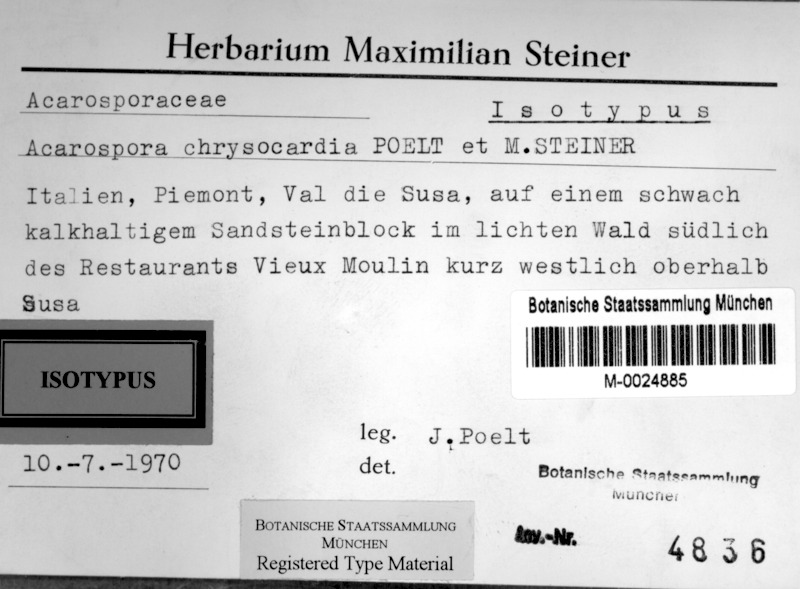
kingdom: Fungi
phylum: Ascomycota
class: Lecanoromycetes
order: Acarosporales
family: Acarosporaceae
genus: Acarospora
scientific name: Acarospora chrysocardia
